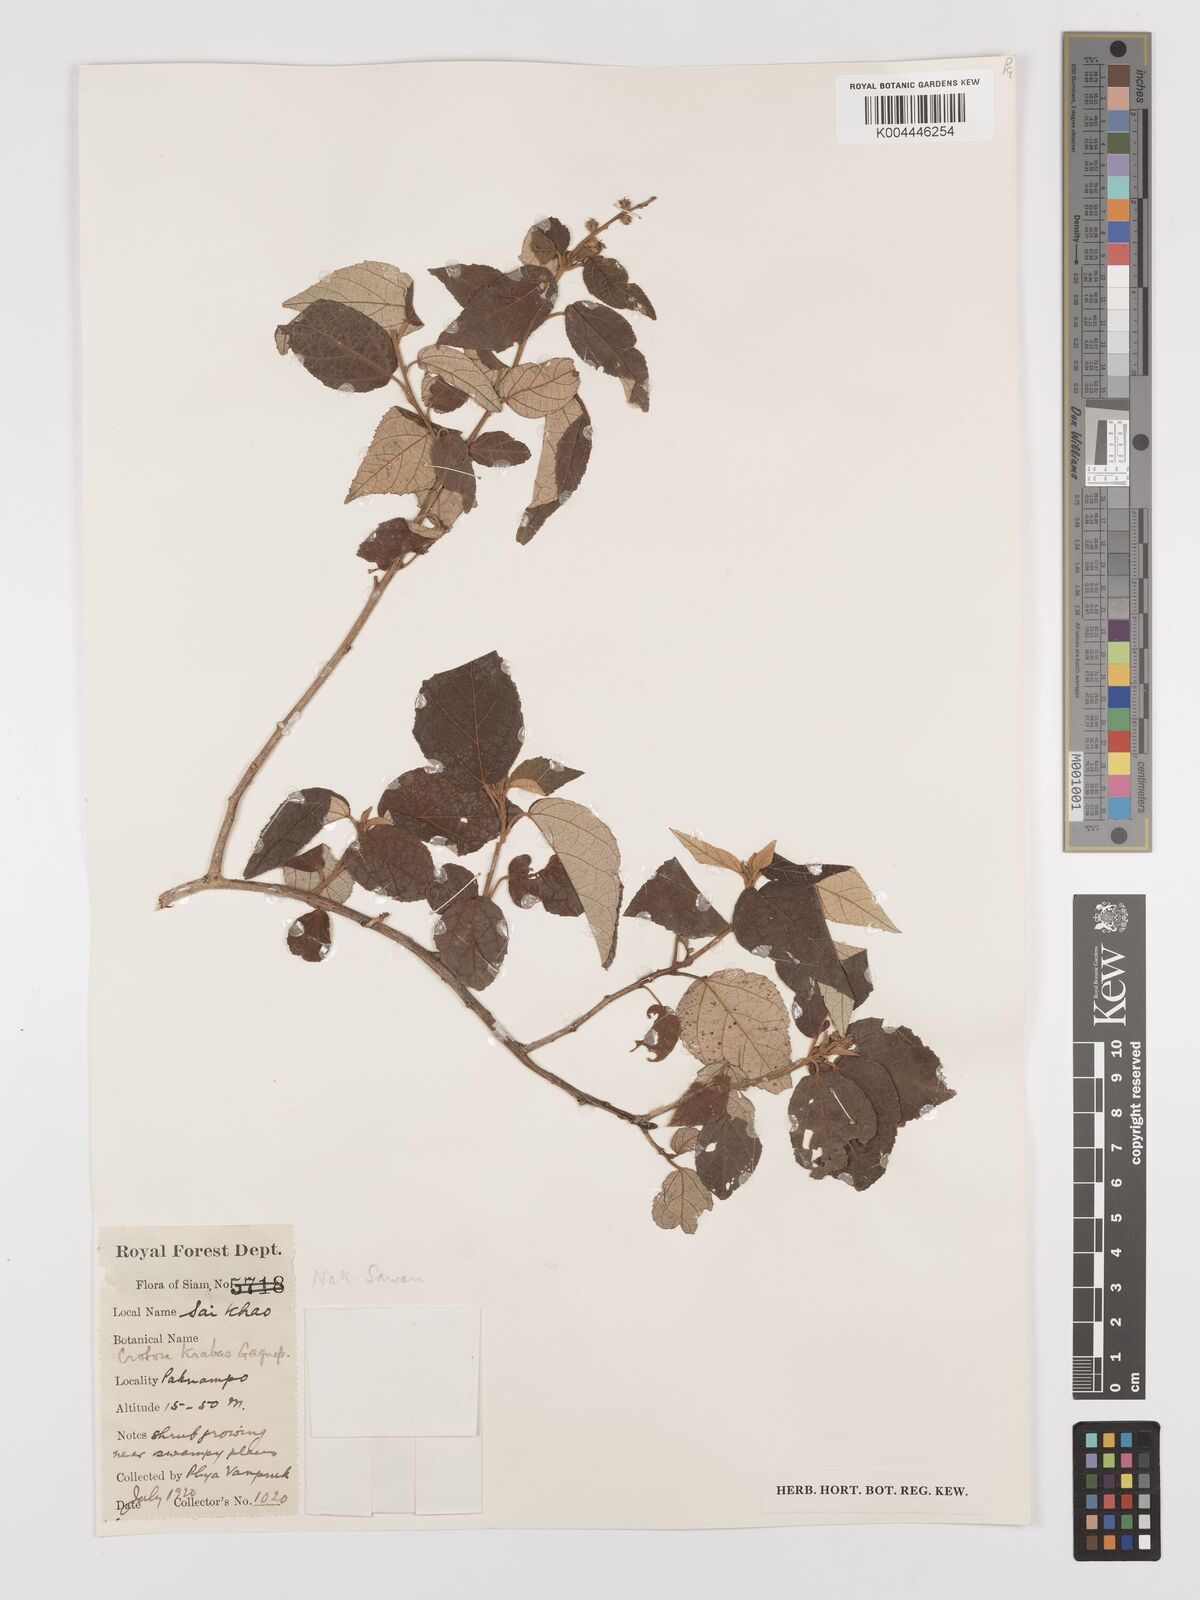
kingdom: Plantae
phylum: Tracheophyta
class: Magnoliopsida
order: Malpighiales
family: Euphorbiaceae
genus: Croton
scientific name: Croton krabas
